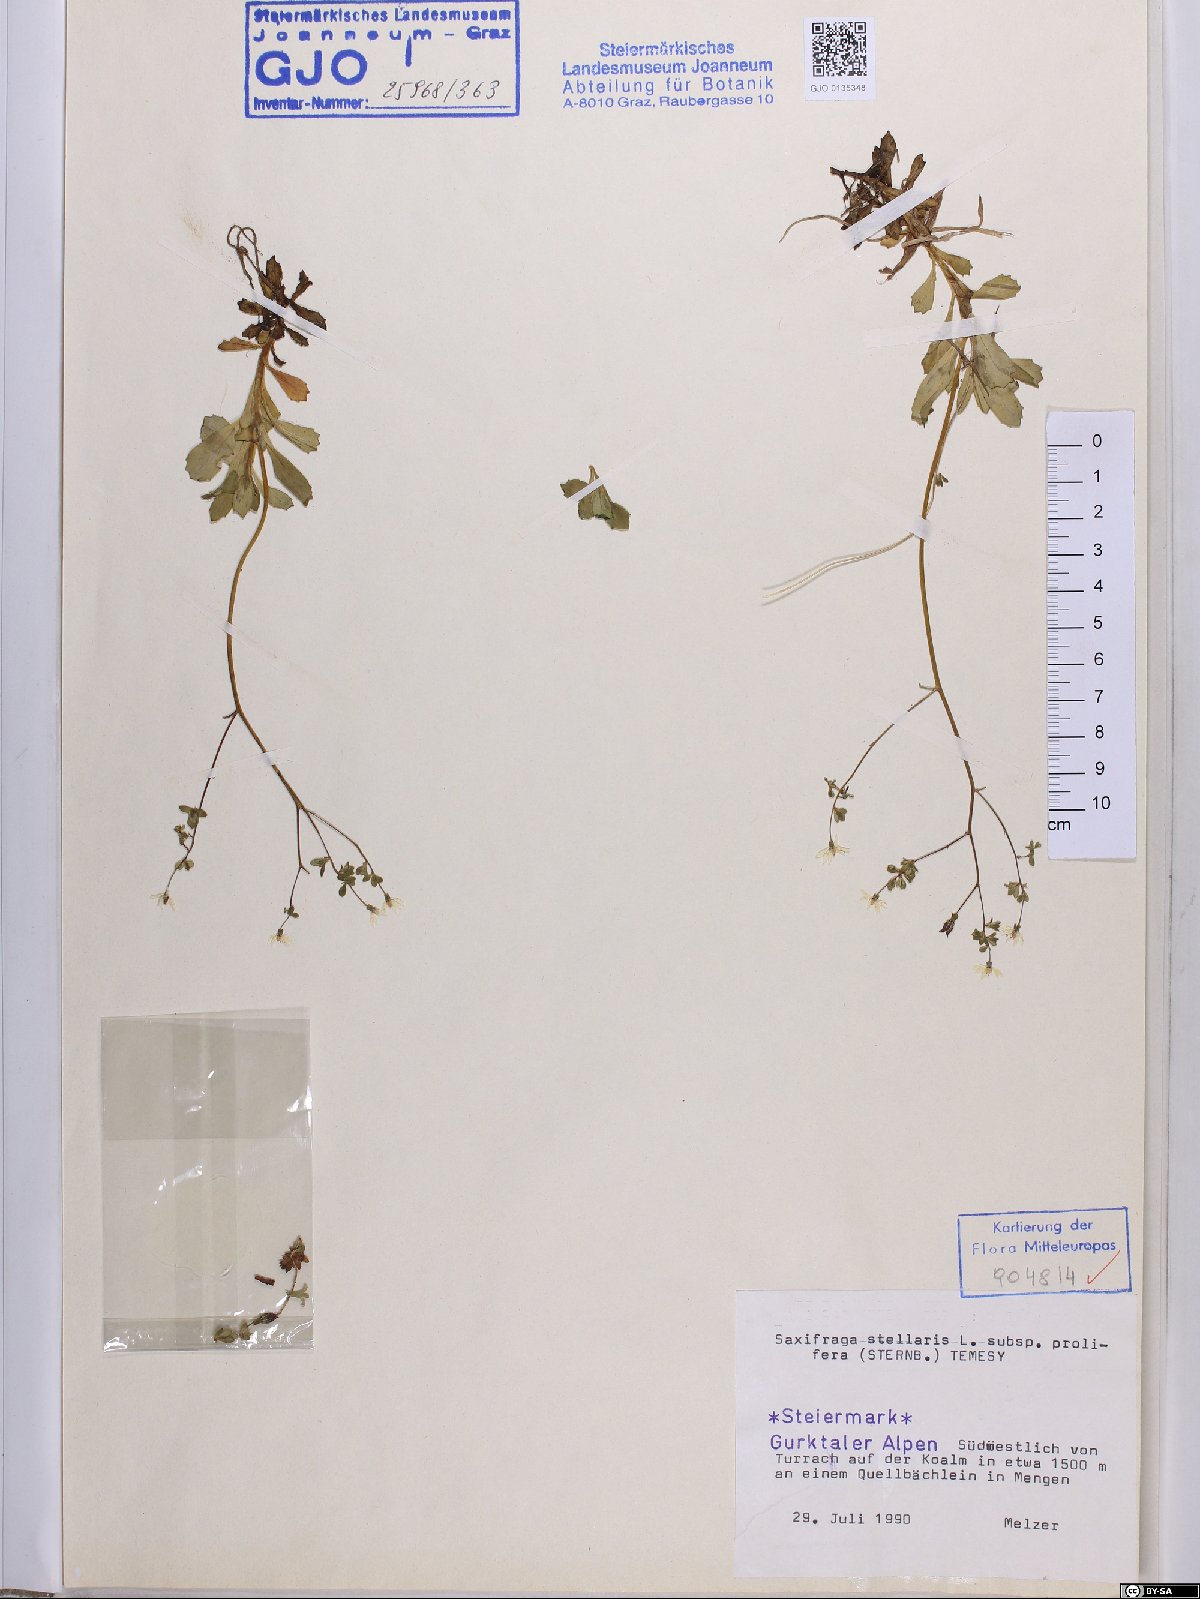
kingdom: Plantae
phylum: Tracheophyta
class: Magnoliopsida
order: Saxifragales
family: Saxifragaceae
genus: Micranthes
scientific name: Micranthes stellaris
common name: Starry saxifrage
